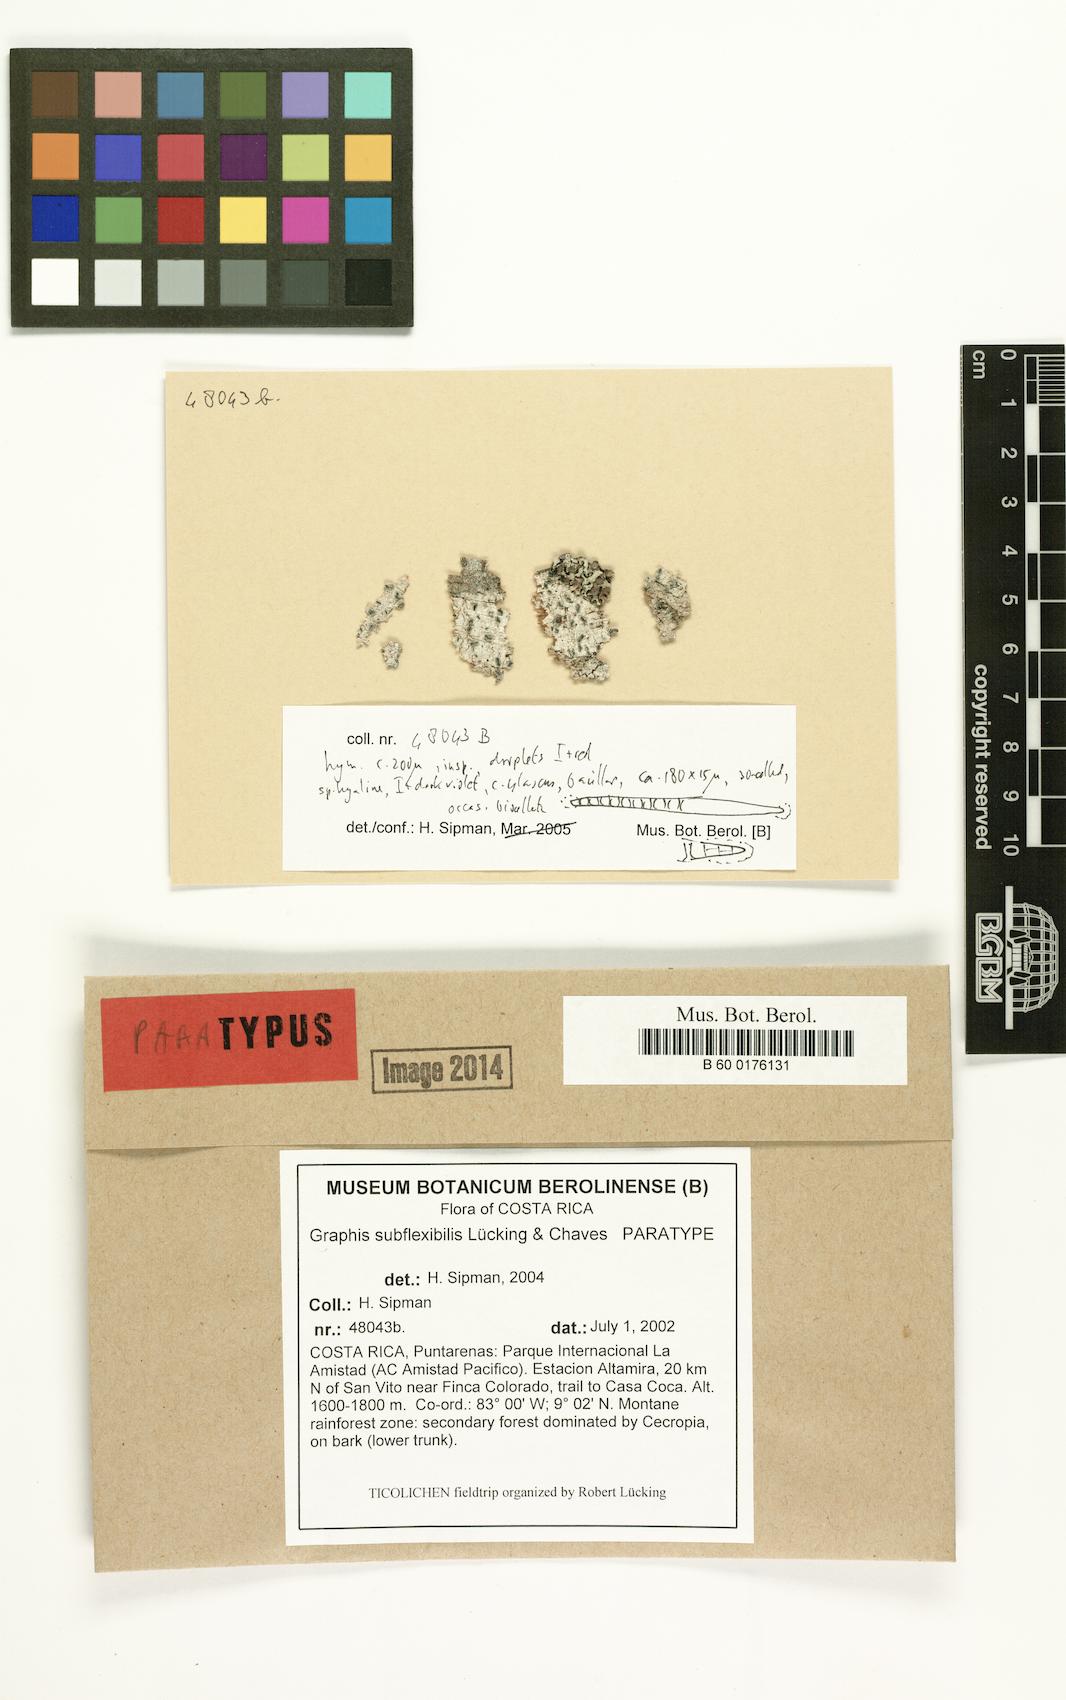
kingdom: Fungi
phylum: Ascomycota
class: Lecanoromycetes
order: Ostropales
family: Graphidaceae
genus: Allographa
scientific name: Allographa subflexibilis
